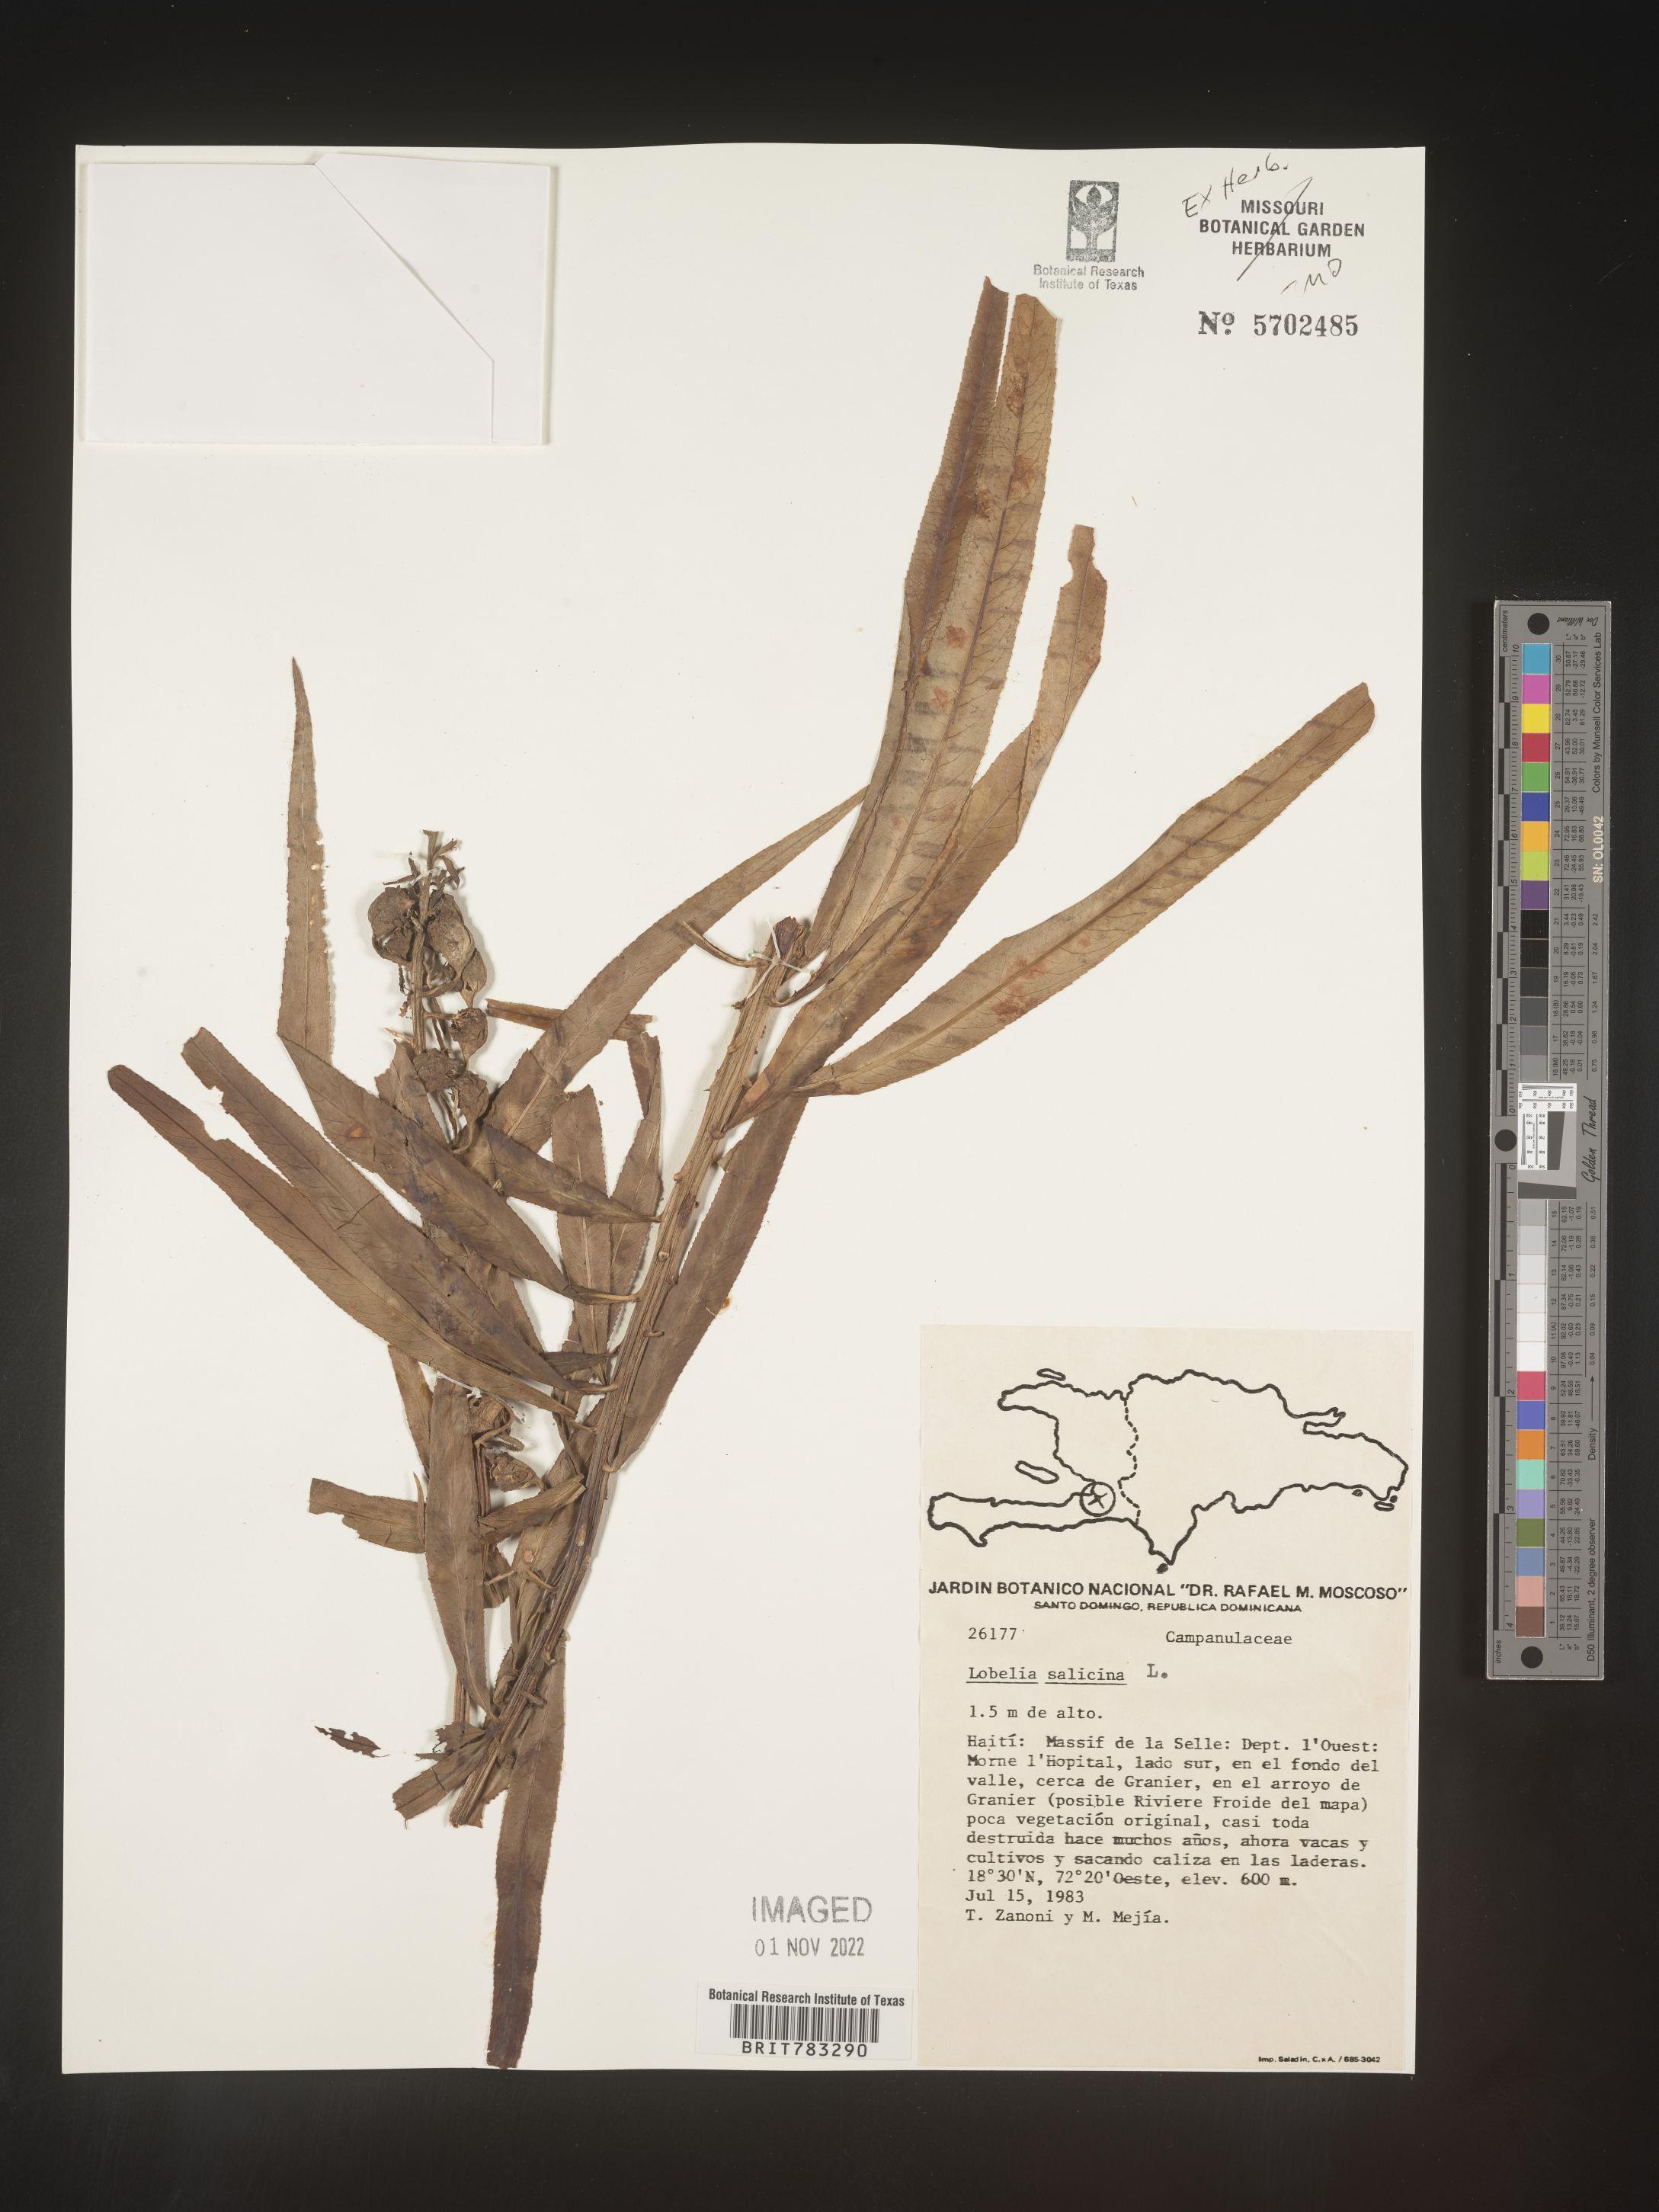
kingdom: Plantae
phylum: Tracheophyta
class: Magnoliopsida
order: Asterales
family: Campanulaceae
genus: Lobelia
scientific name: Lobelia
